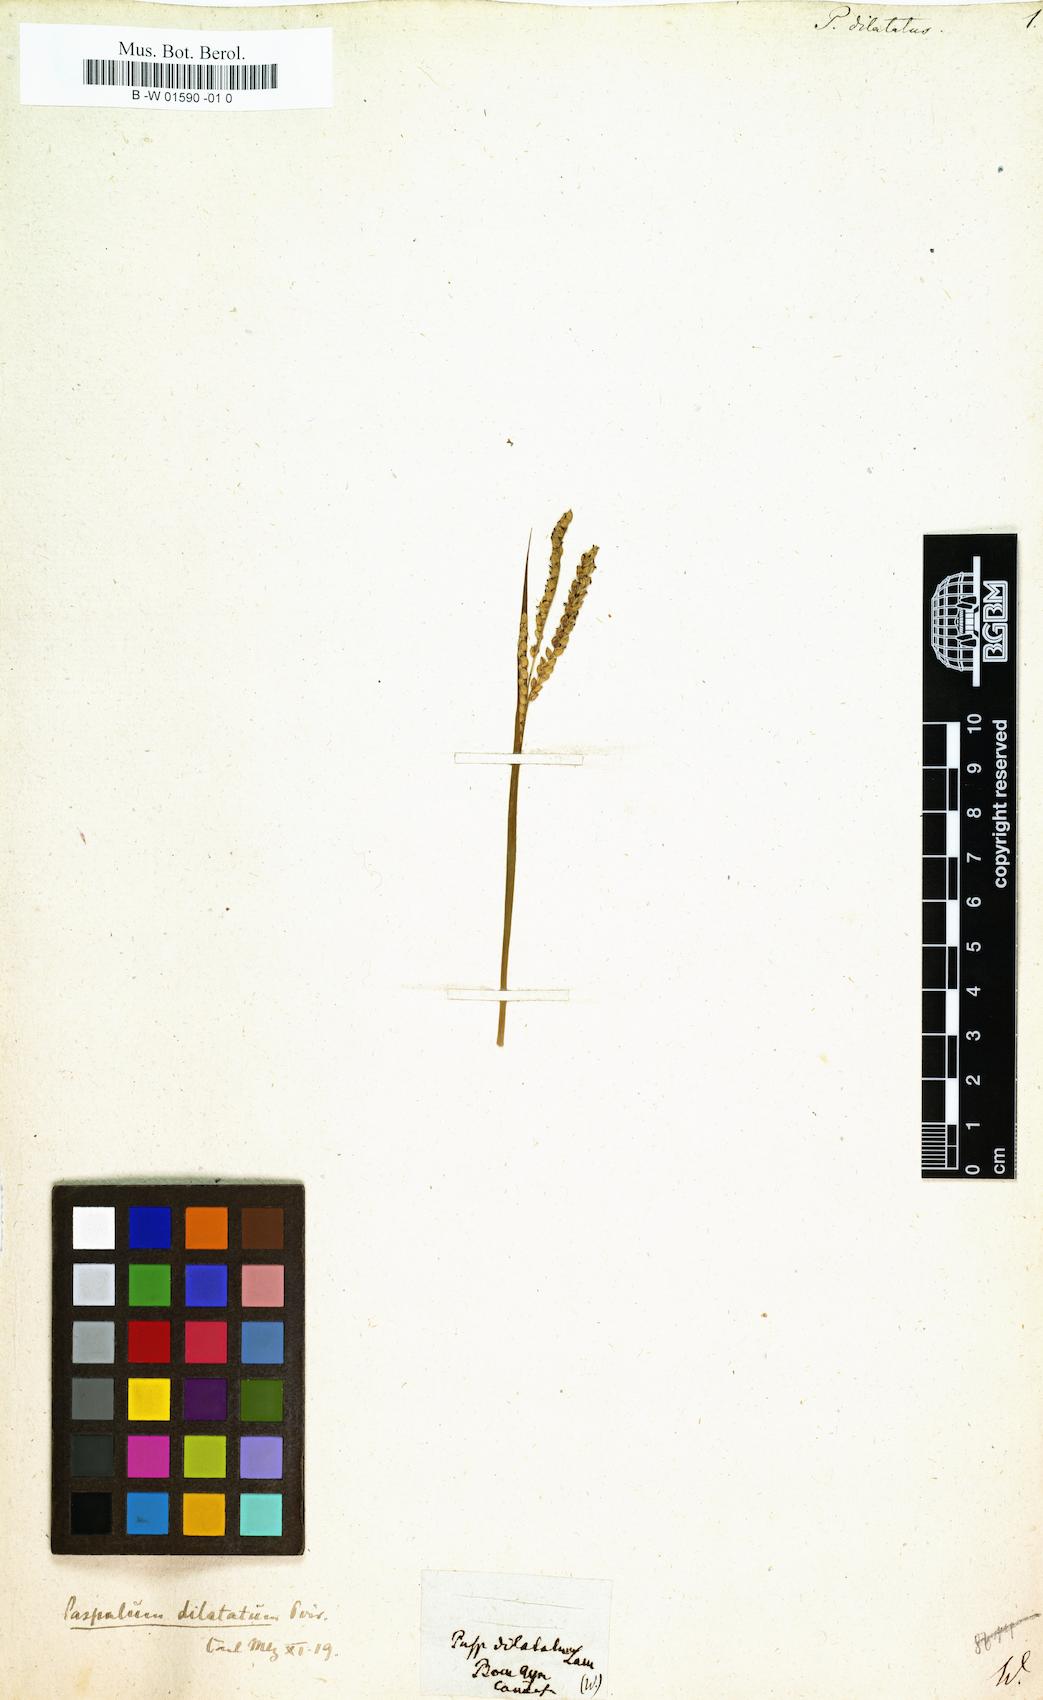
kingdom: Plantae
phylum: Tracheophyta
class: Liliopsida
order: Poales
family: Poaceae
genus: Paspalus
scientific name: Paspalus
